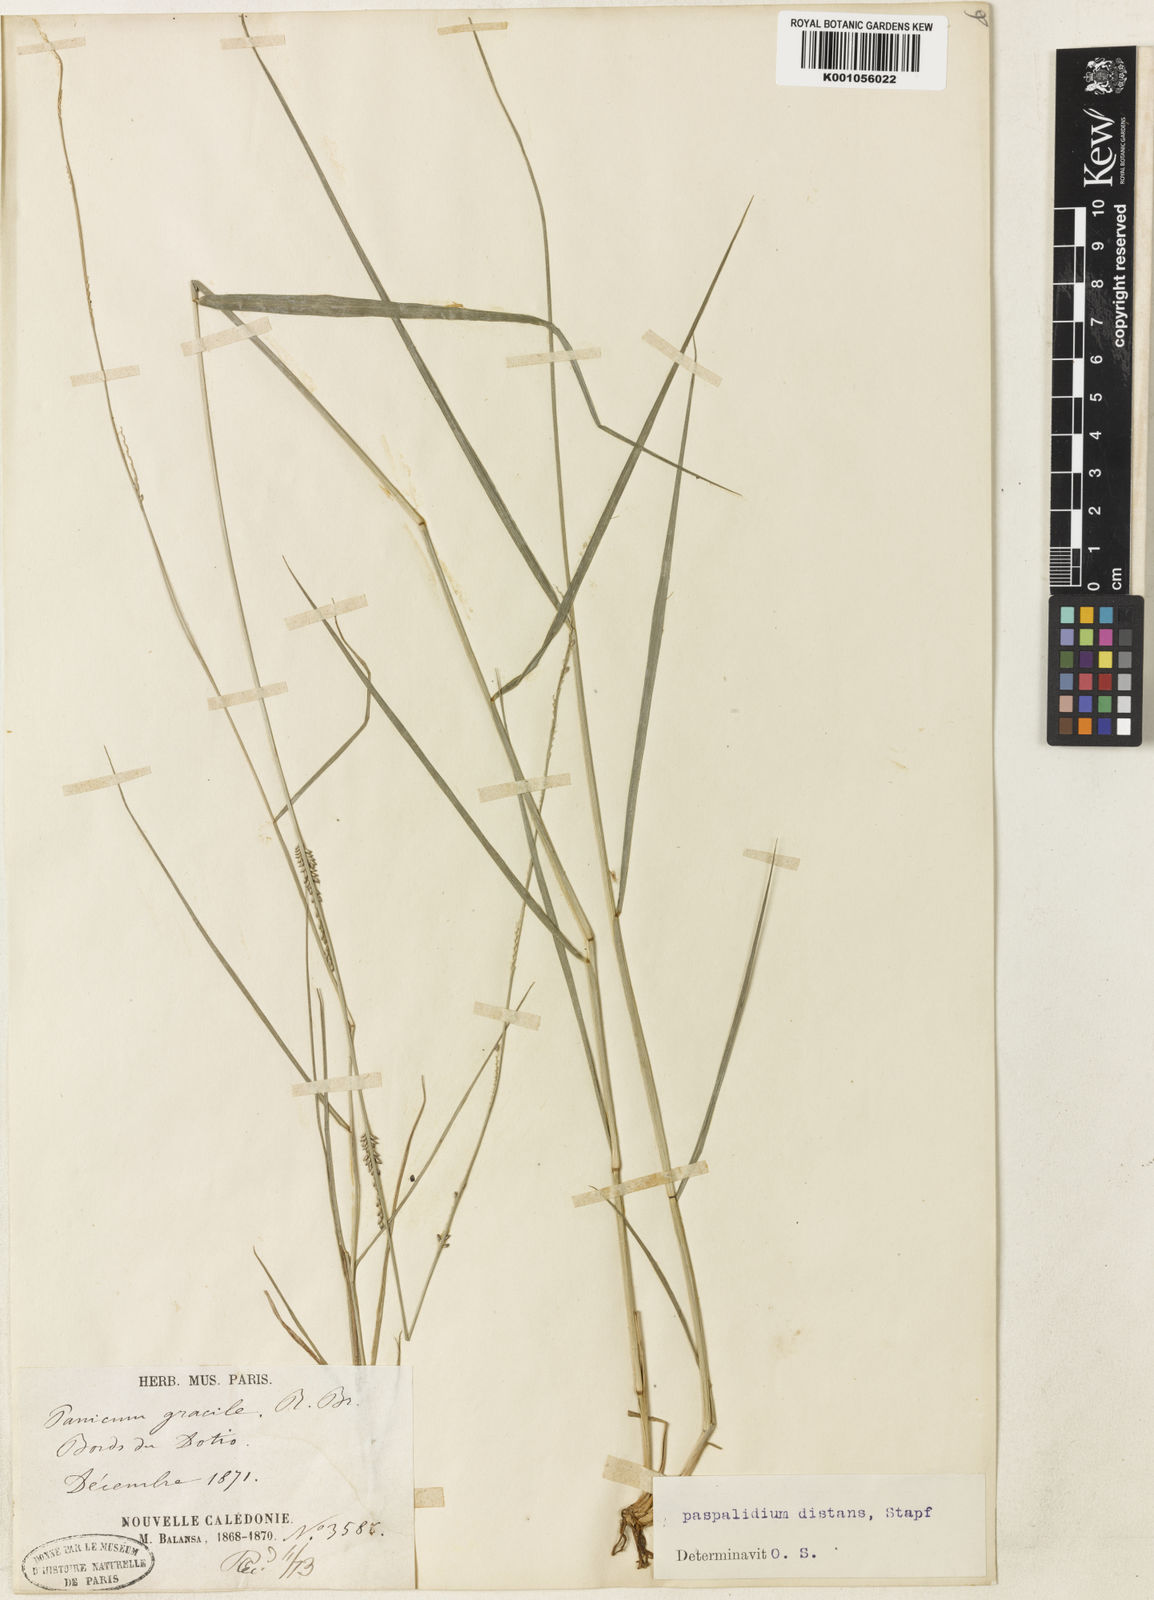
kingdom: Plantae
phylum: Tracheophyta
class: Liliopsida
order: Poales
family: Poaceae
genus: Setaria
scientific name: Setaria elegantula
